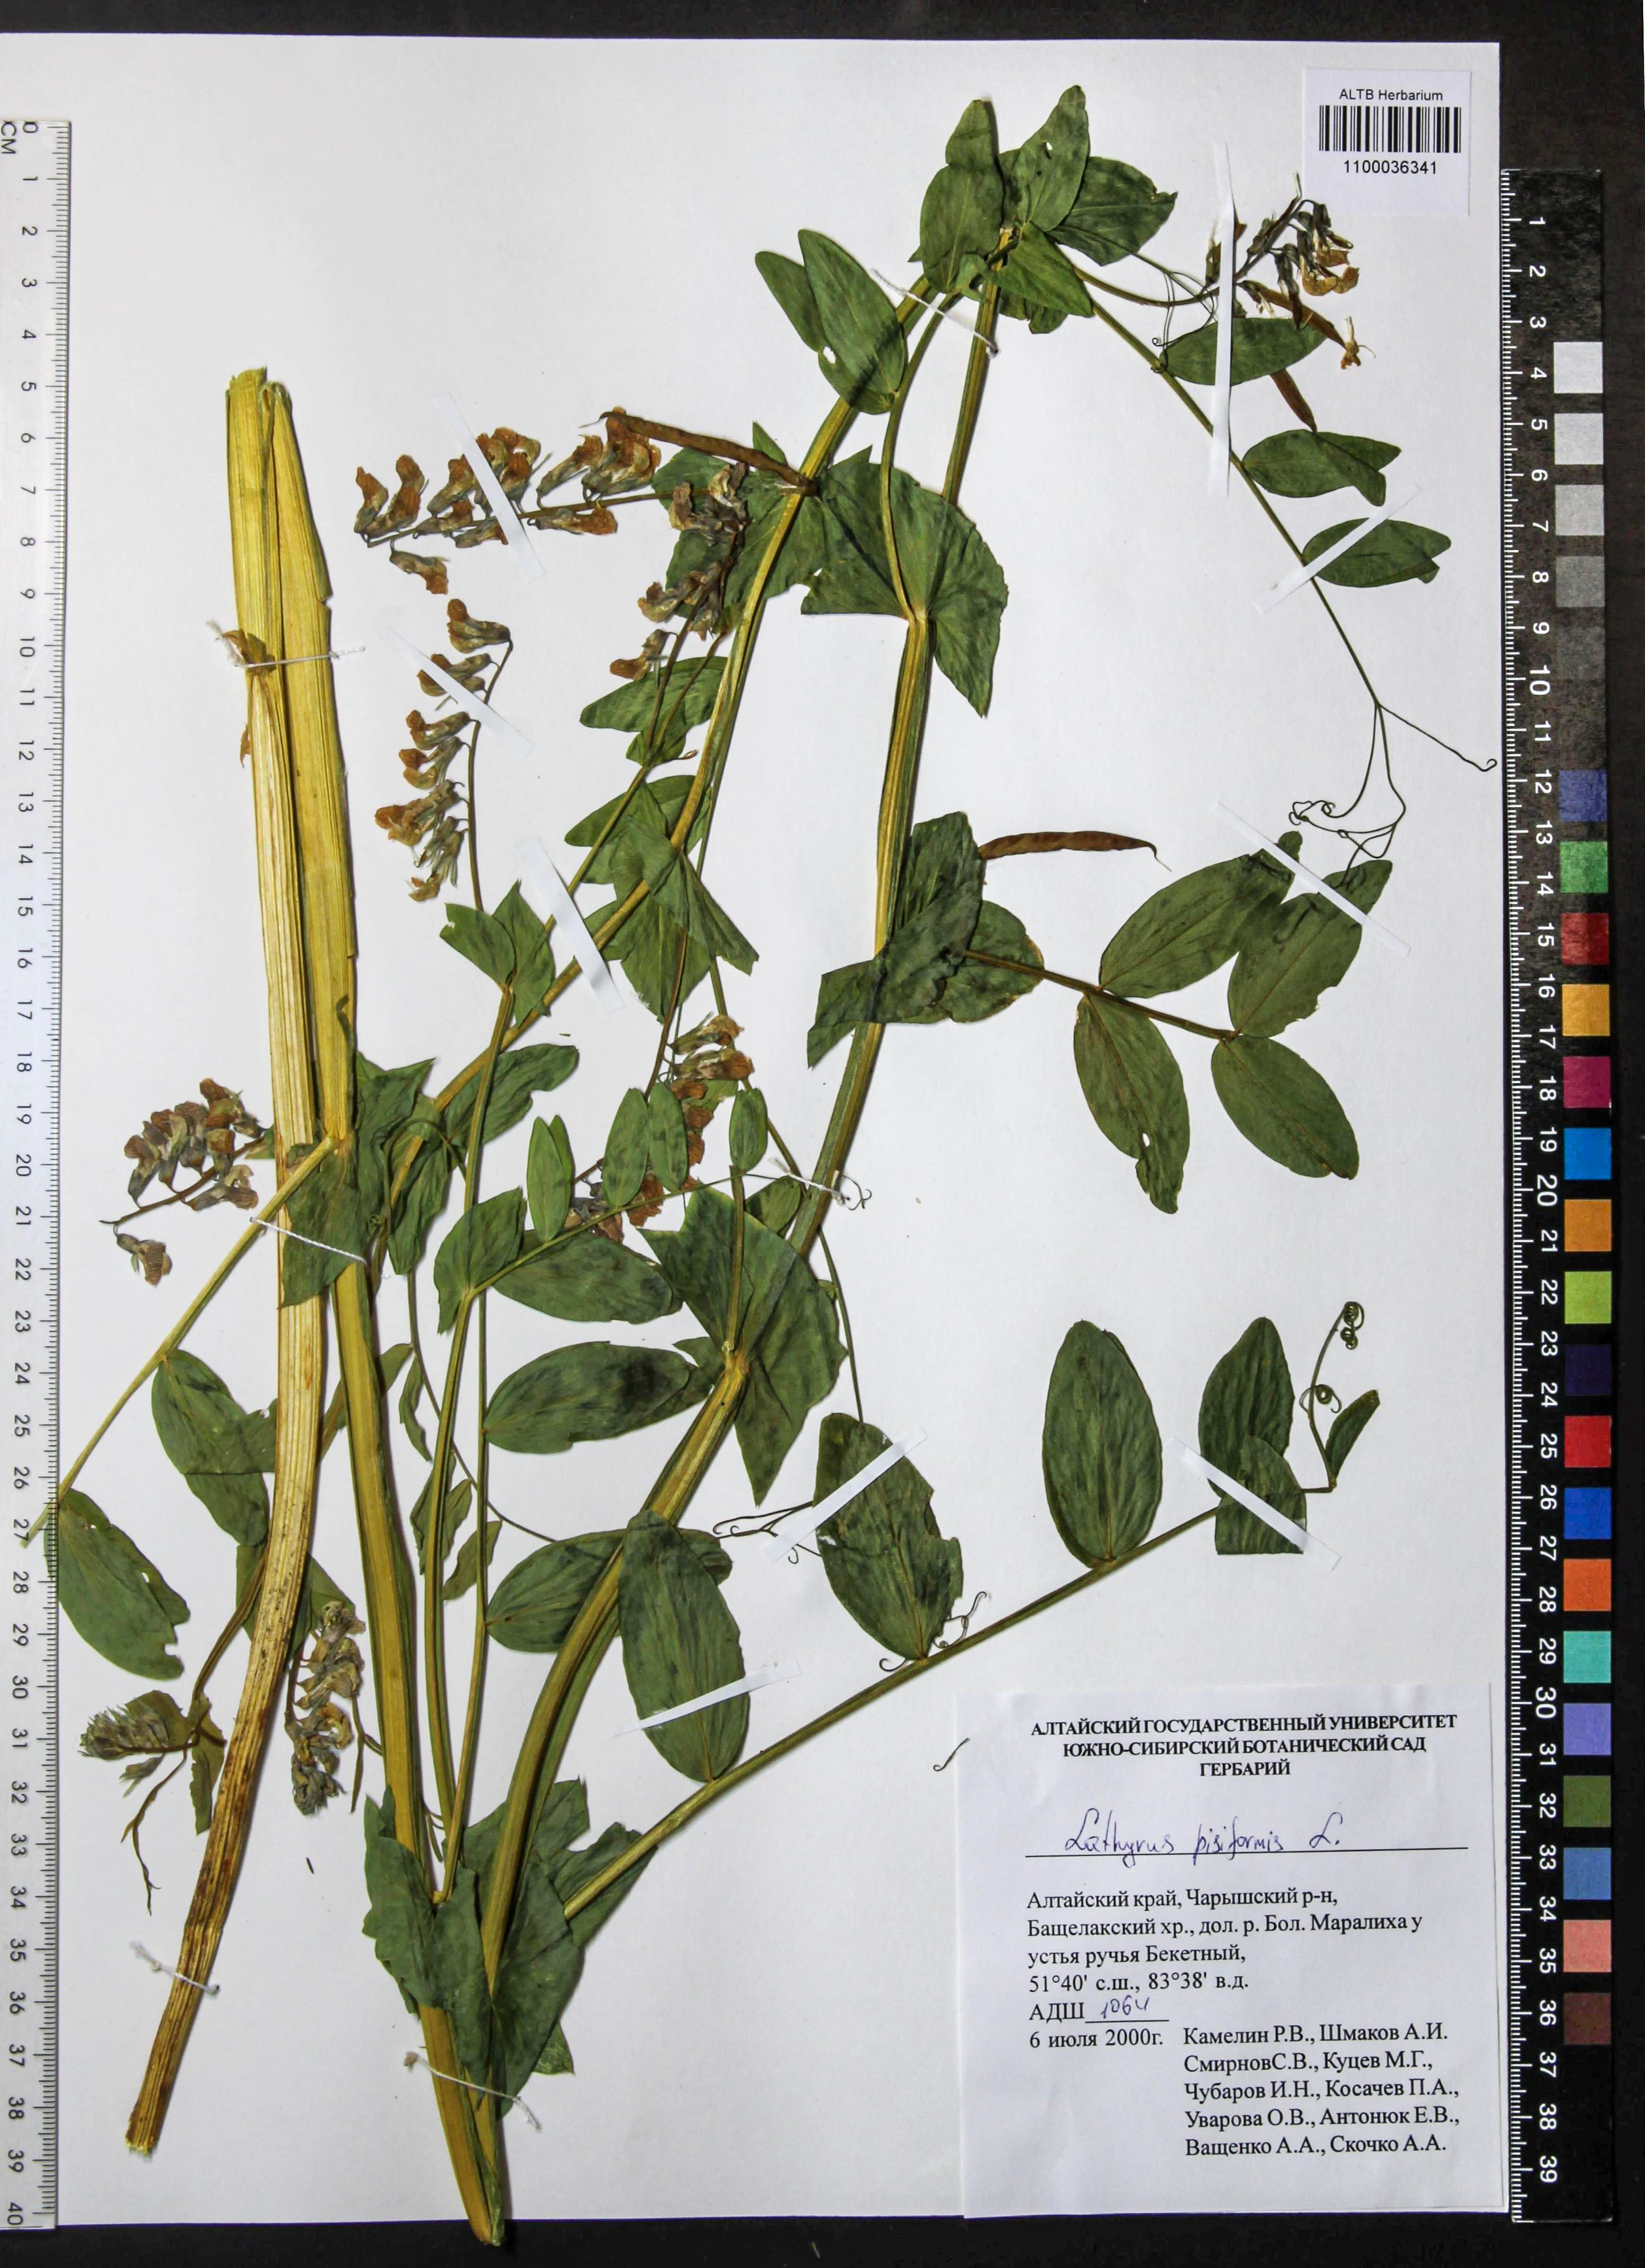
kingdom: Plantae
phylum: Tracheophyta
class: Magnoliopsida
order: Fabales
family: Fabaceae
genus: Lathyrus
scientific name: Lathyrus pisiformis
